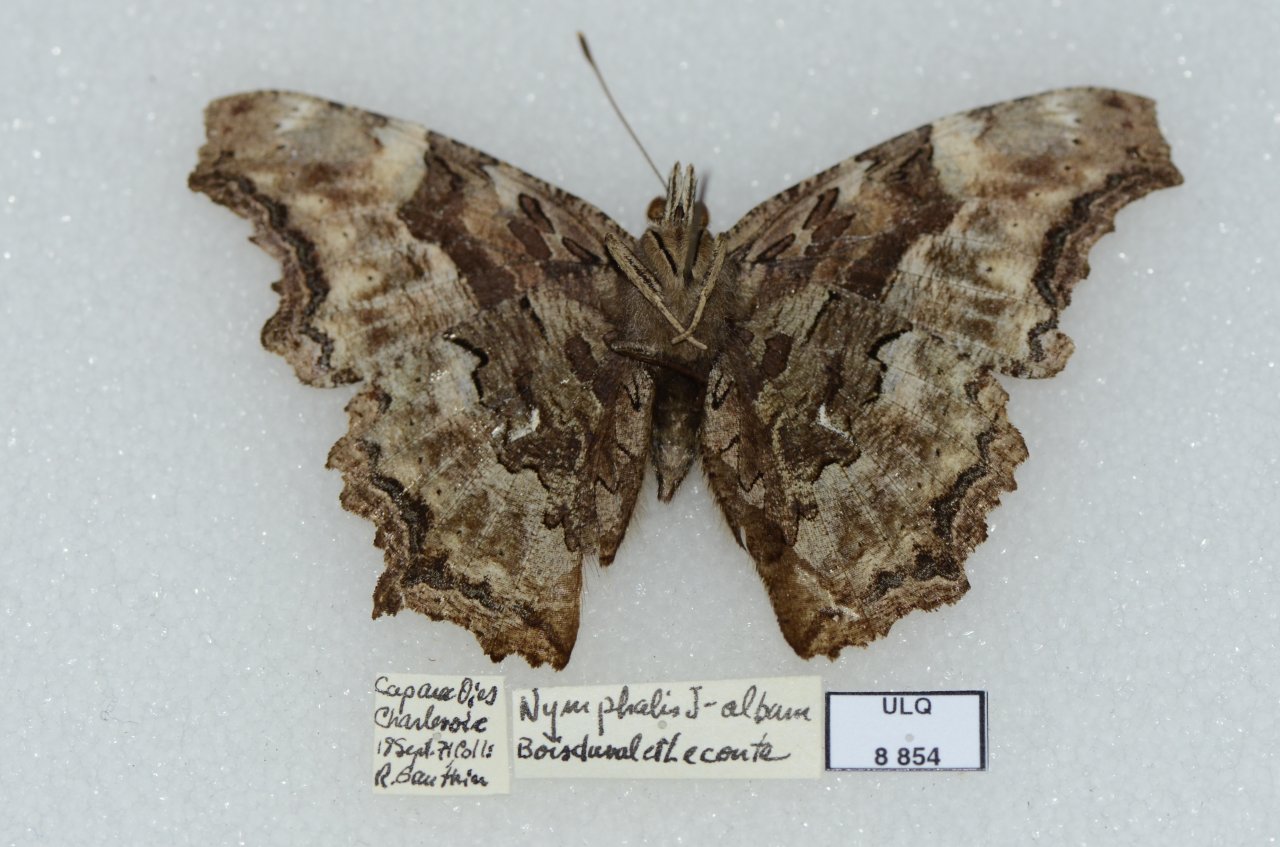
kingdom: Animalia
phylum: Arthropoda
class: Insecta
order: Lepidoptera
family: Nymphalidae
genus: Polygonia
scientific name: Polygonia vaualbum
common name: Compton Tortoiseshell
